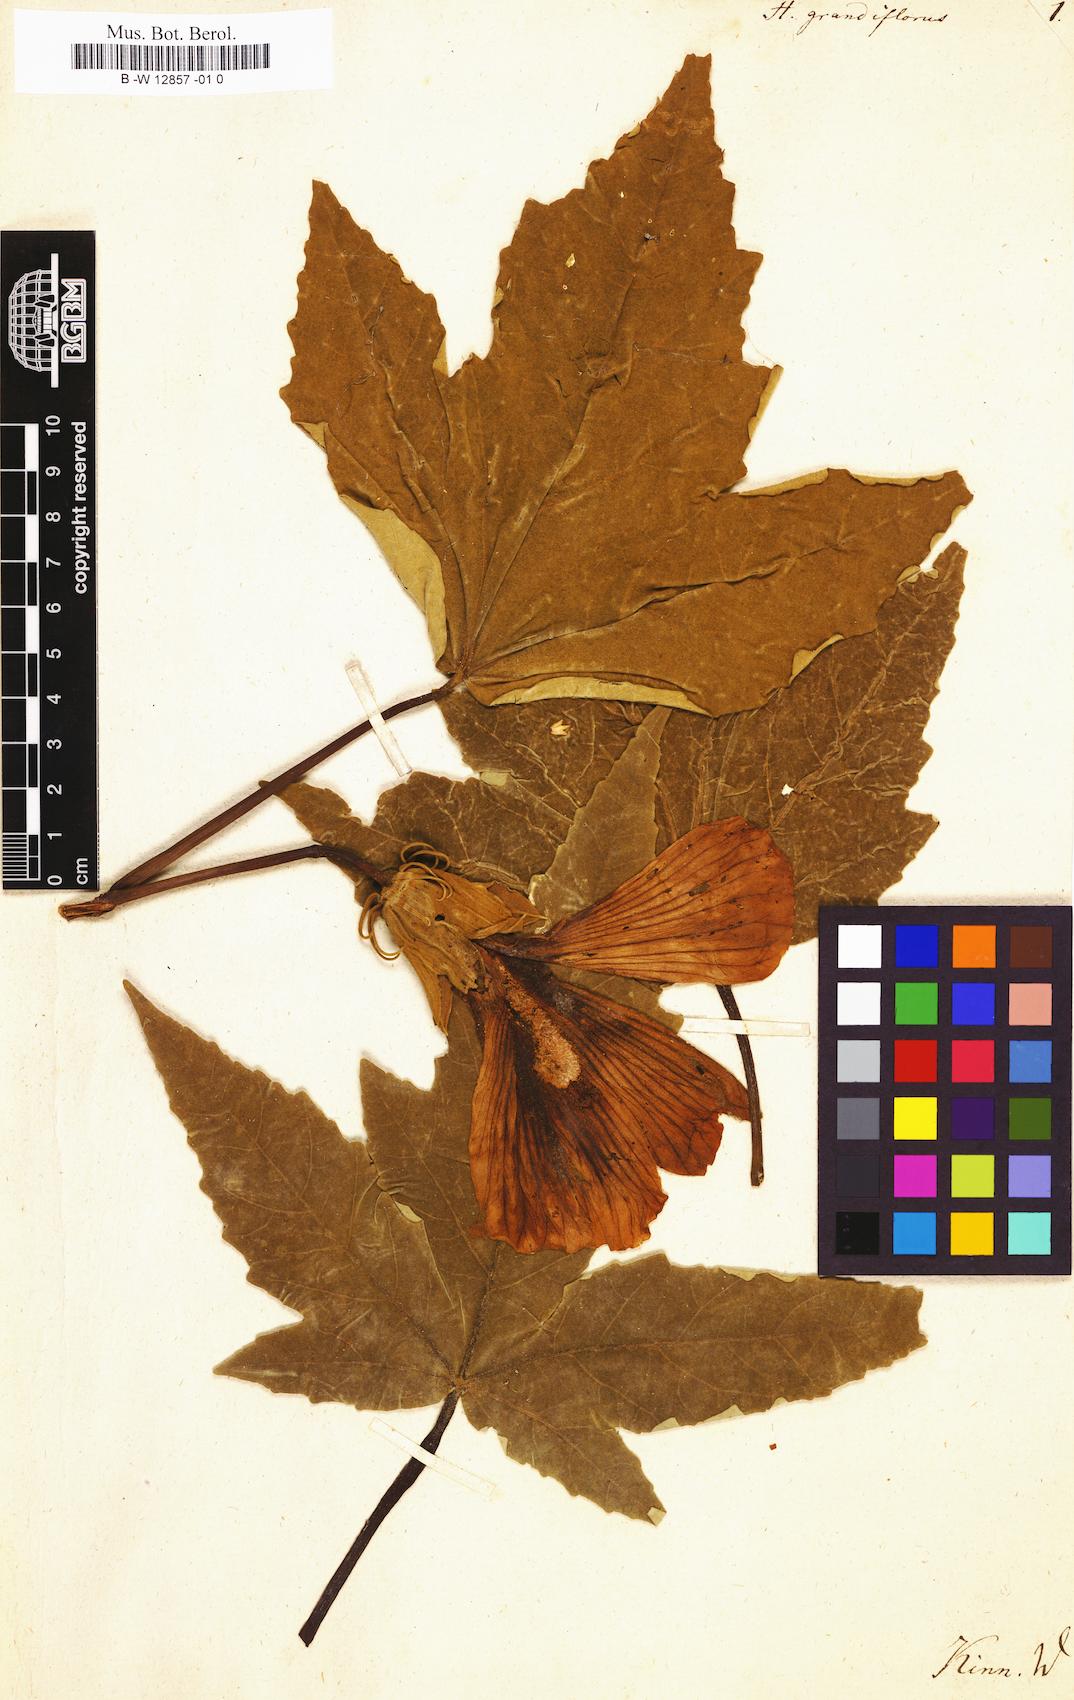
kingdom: Plantae
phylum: Tracheophyta
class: Magnoliopsida
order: Malvales
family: Malvaceae
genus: Hibiscus
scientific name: Hibiscus grandiflorus
